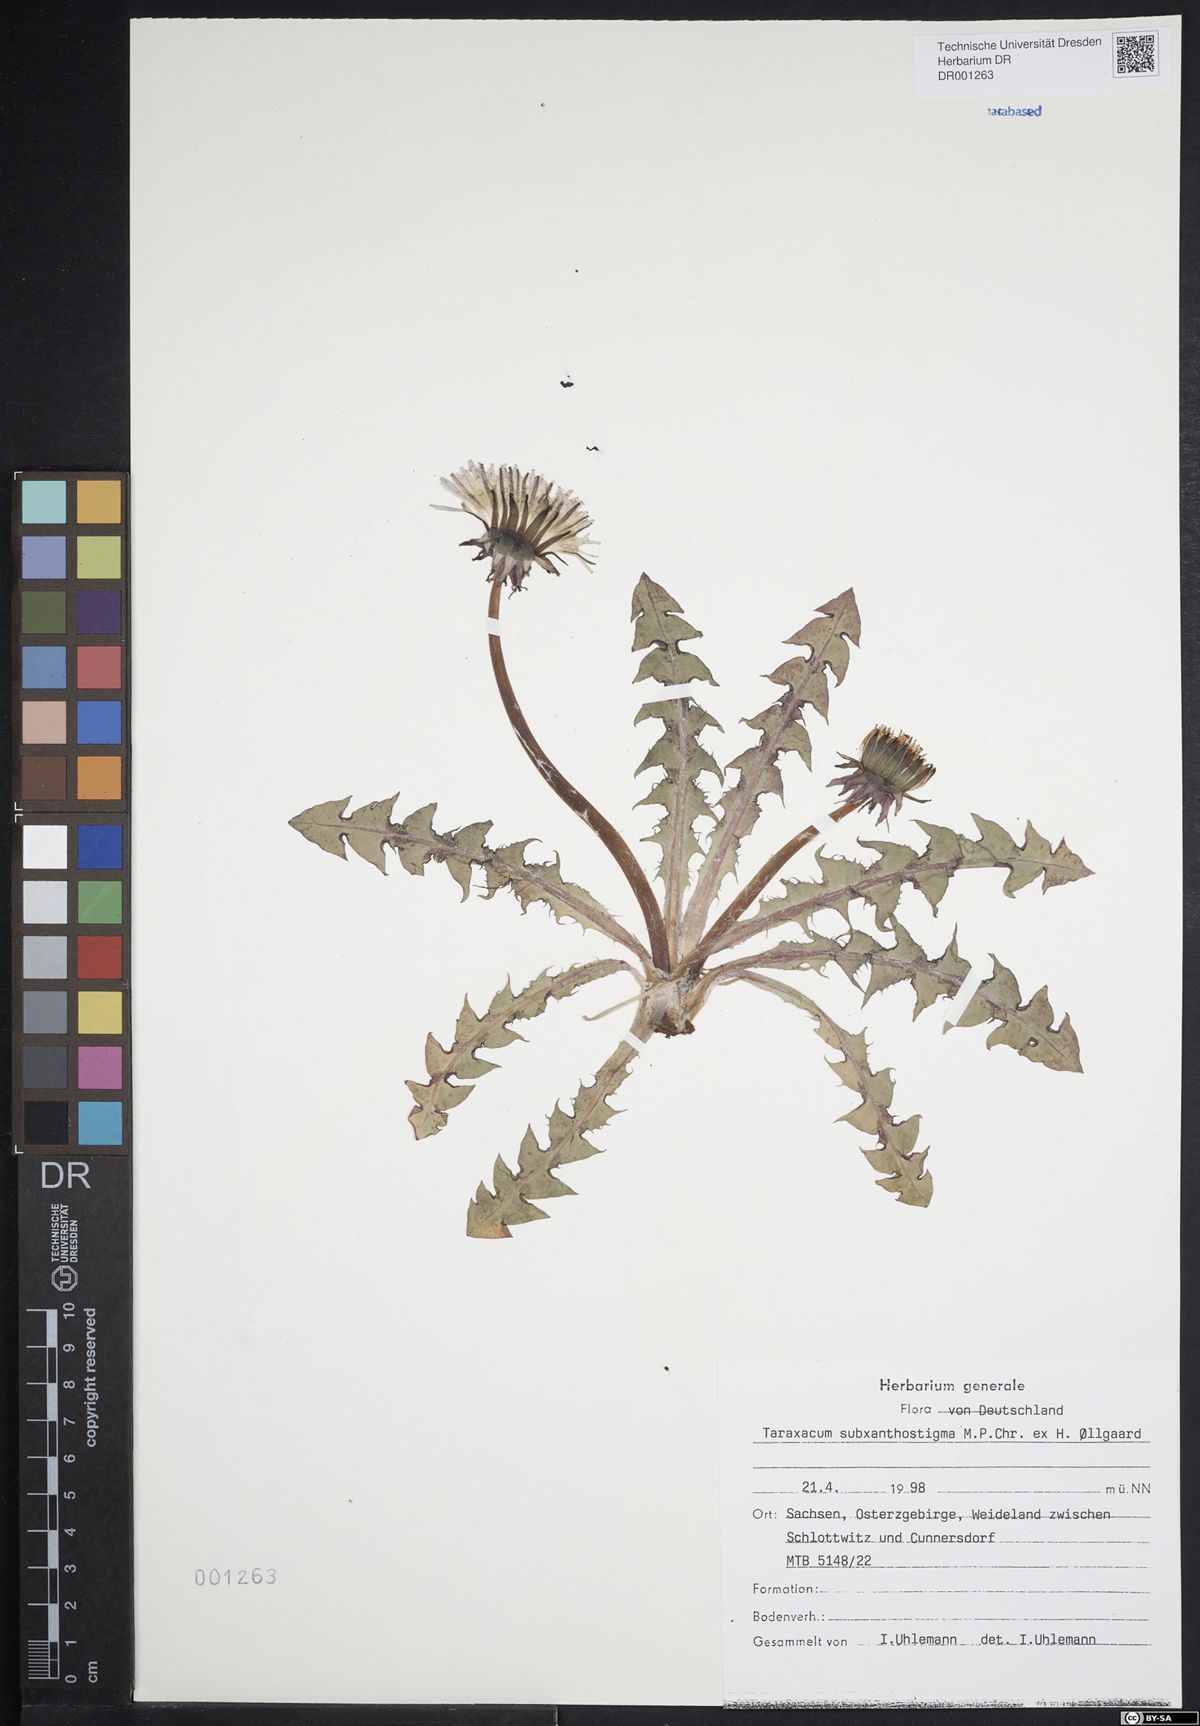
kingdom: Plantae
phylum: Tracheophyta
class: Magnoliopsida
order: Asterales
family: Asteraceae
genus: Taraxacum
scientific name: Taraxacum subxanthostigma
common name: Purple-stalked dandelion
